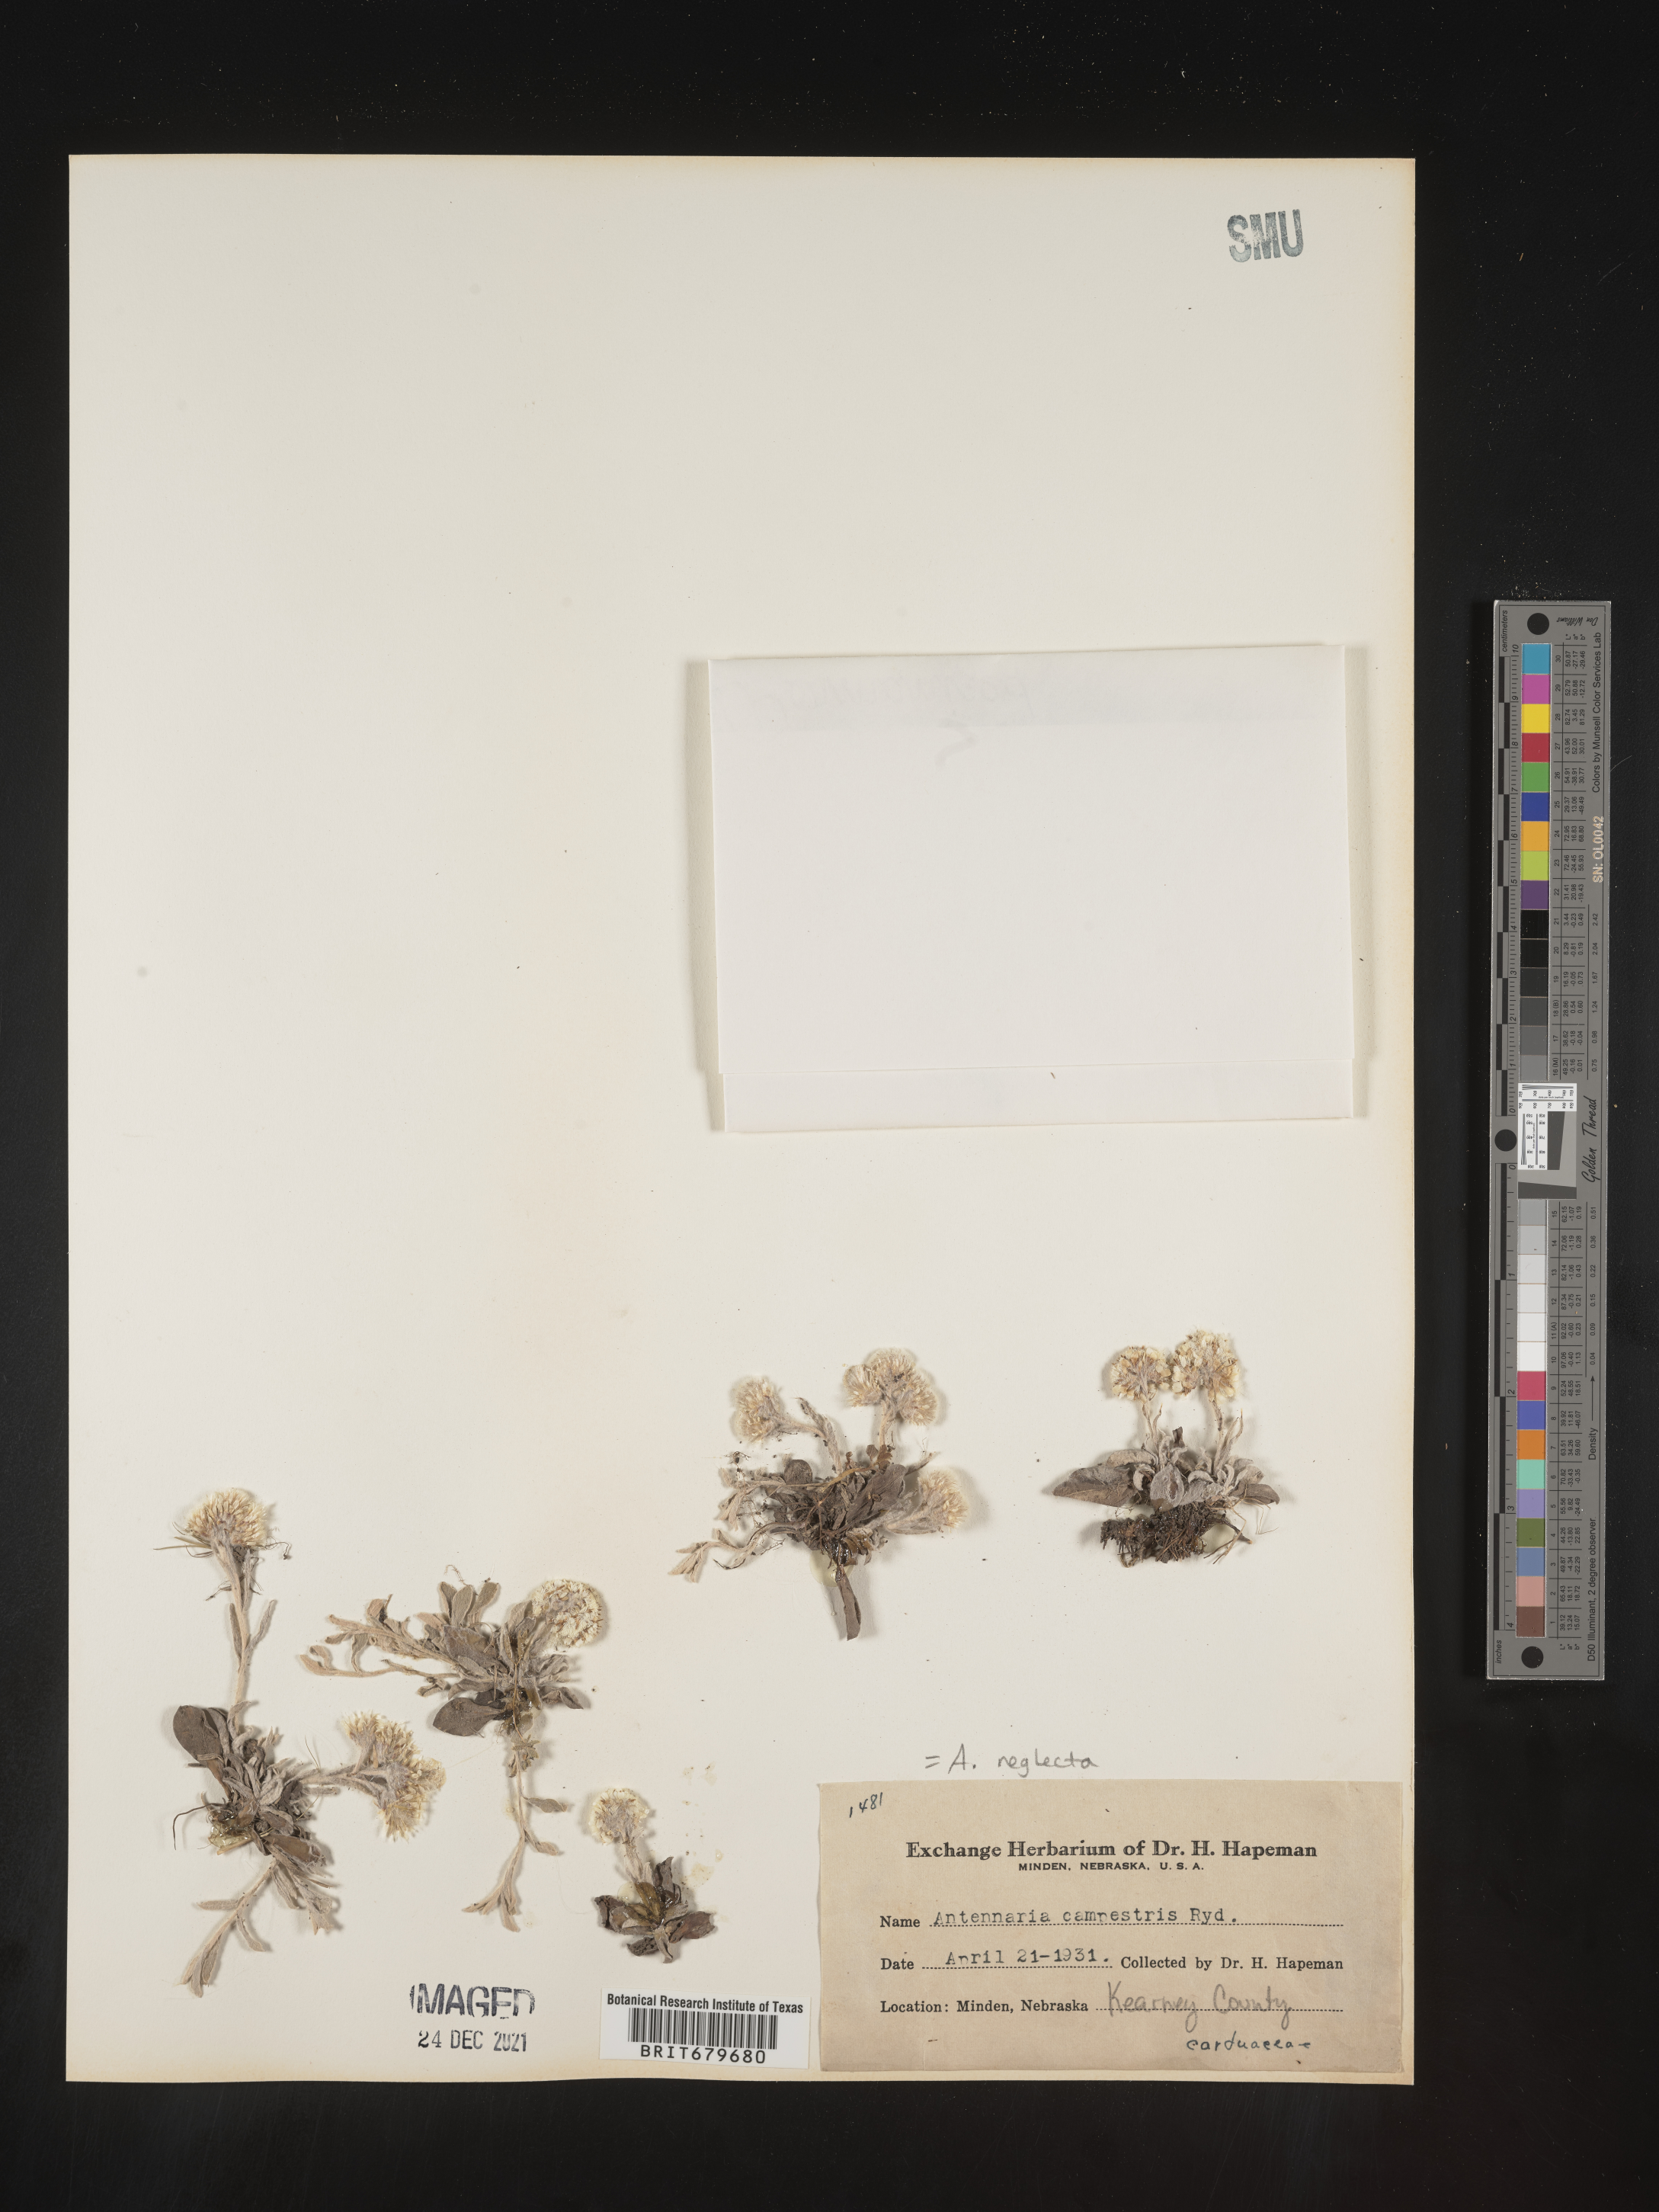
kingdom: Plantae
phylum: Tracheophyta
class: Magnoliopsida
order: Asterales
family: Asteraceae
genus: Antennaria
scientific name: Antennaria neglecta
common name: Field pussytoes
